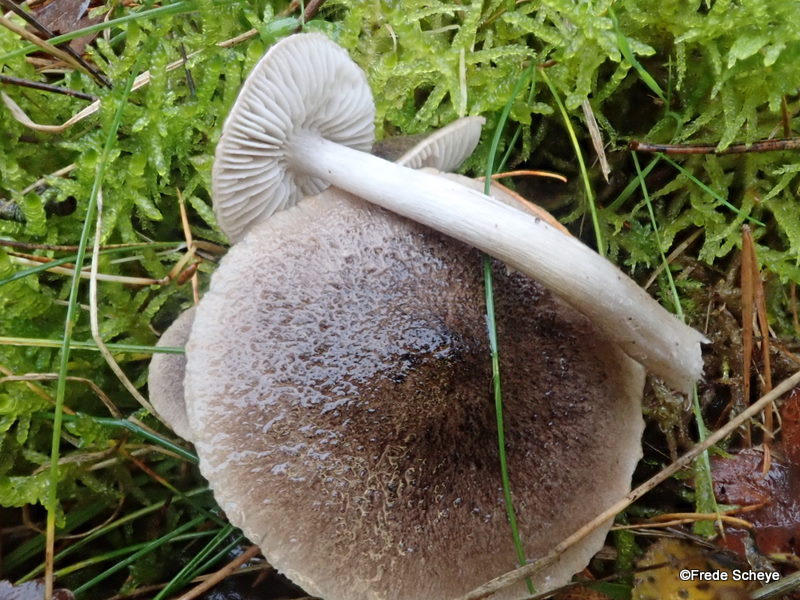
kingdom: Fungi
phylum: Basidiomycota
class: Agaricomycetes
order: Agaricales
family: Tricholomataceae
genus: Tricholoma
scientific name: Tricholoma terreum
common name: jordfarvet ridderhat
